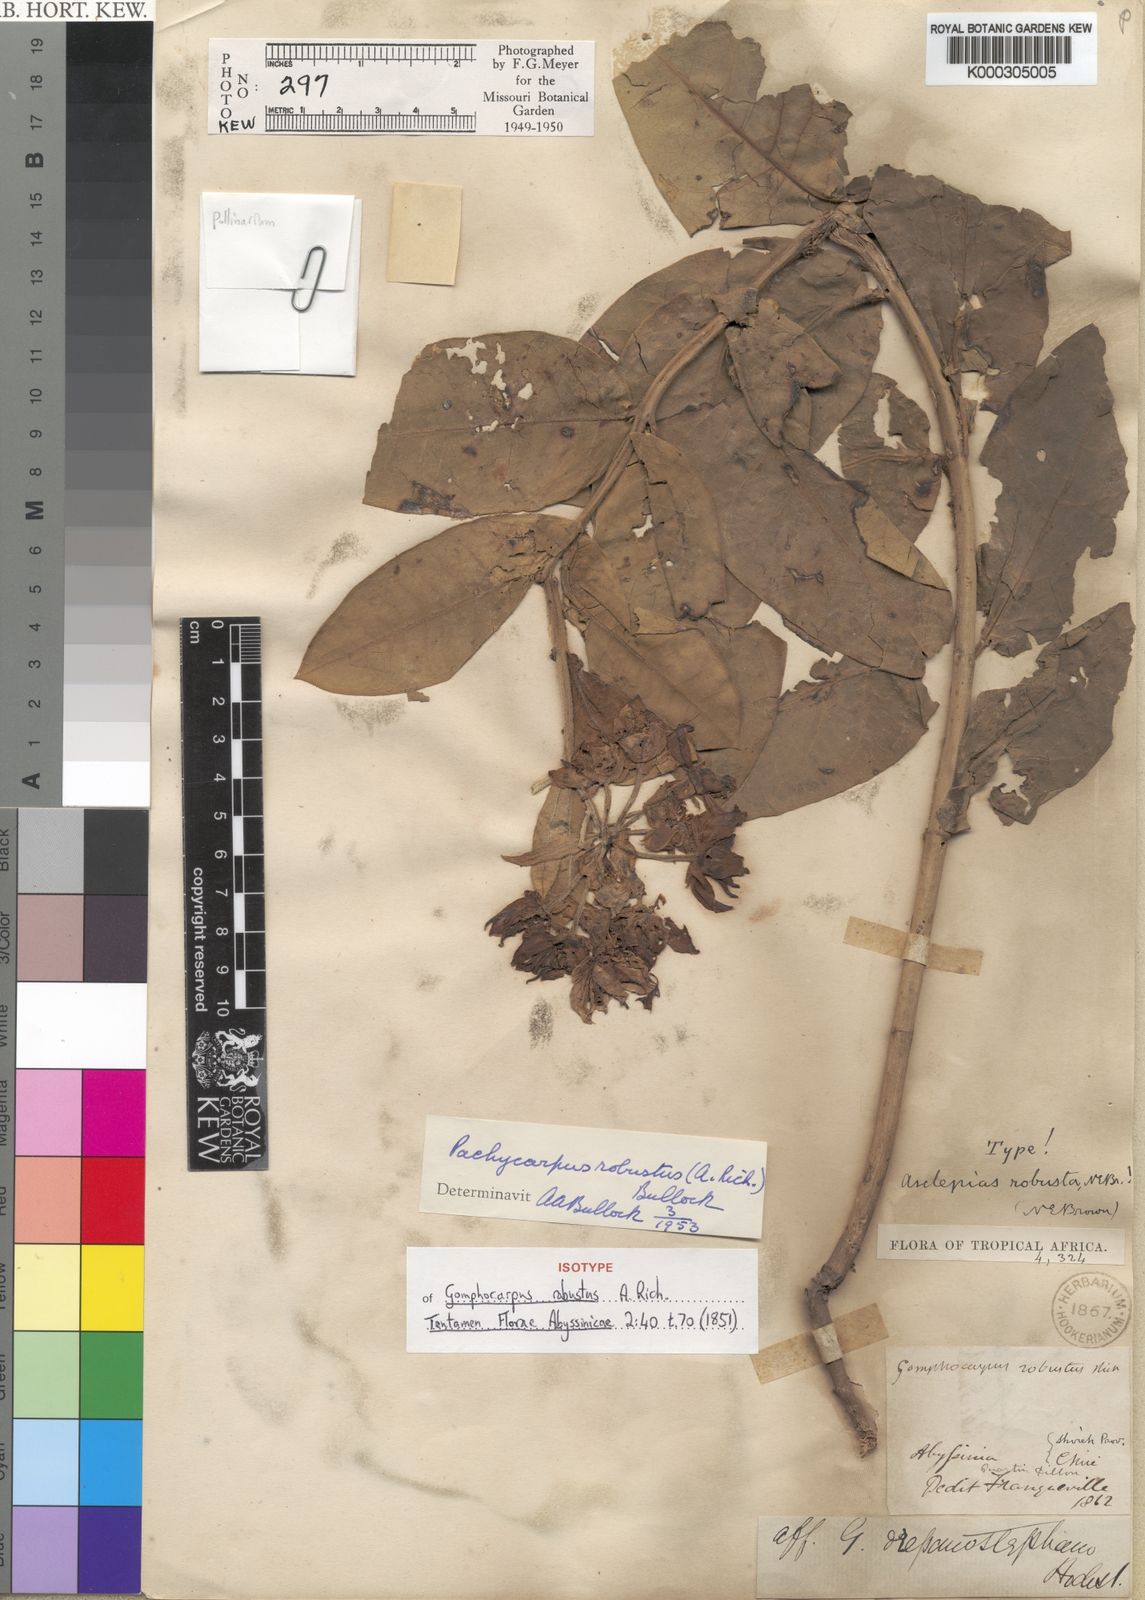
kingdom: Plantae
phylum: Tracheophyta
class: Magnoliopsida
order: Gentianales
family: Apocynaceae
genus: Pachycarpus
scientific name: Pachycarpus robustus
